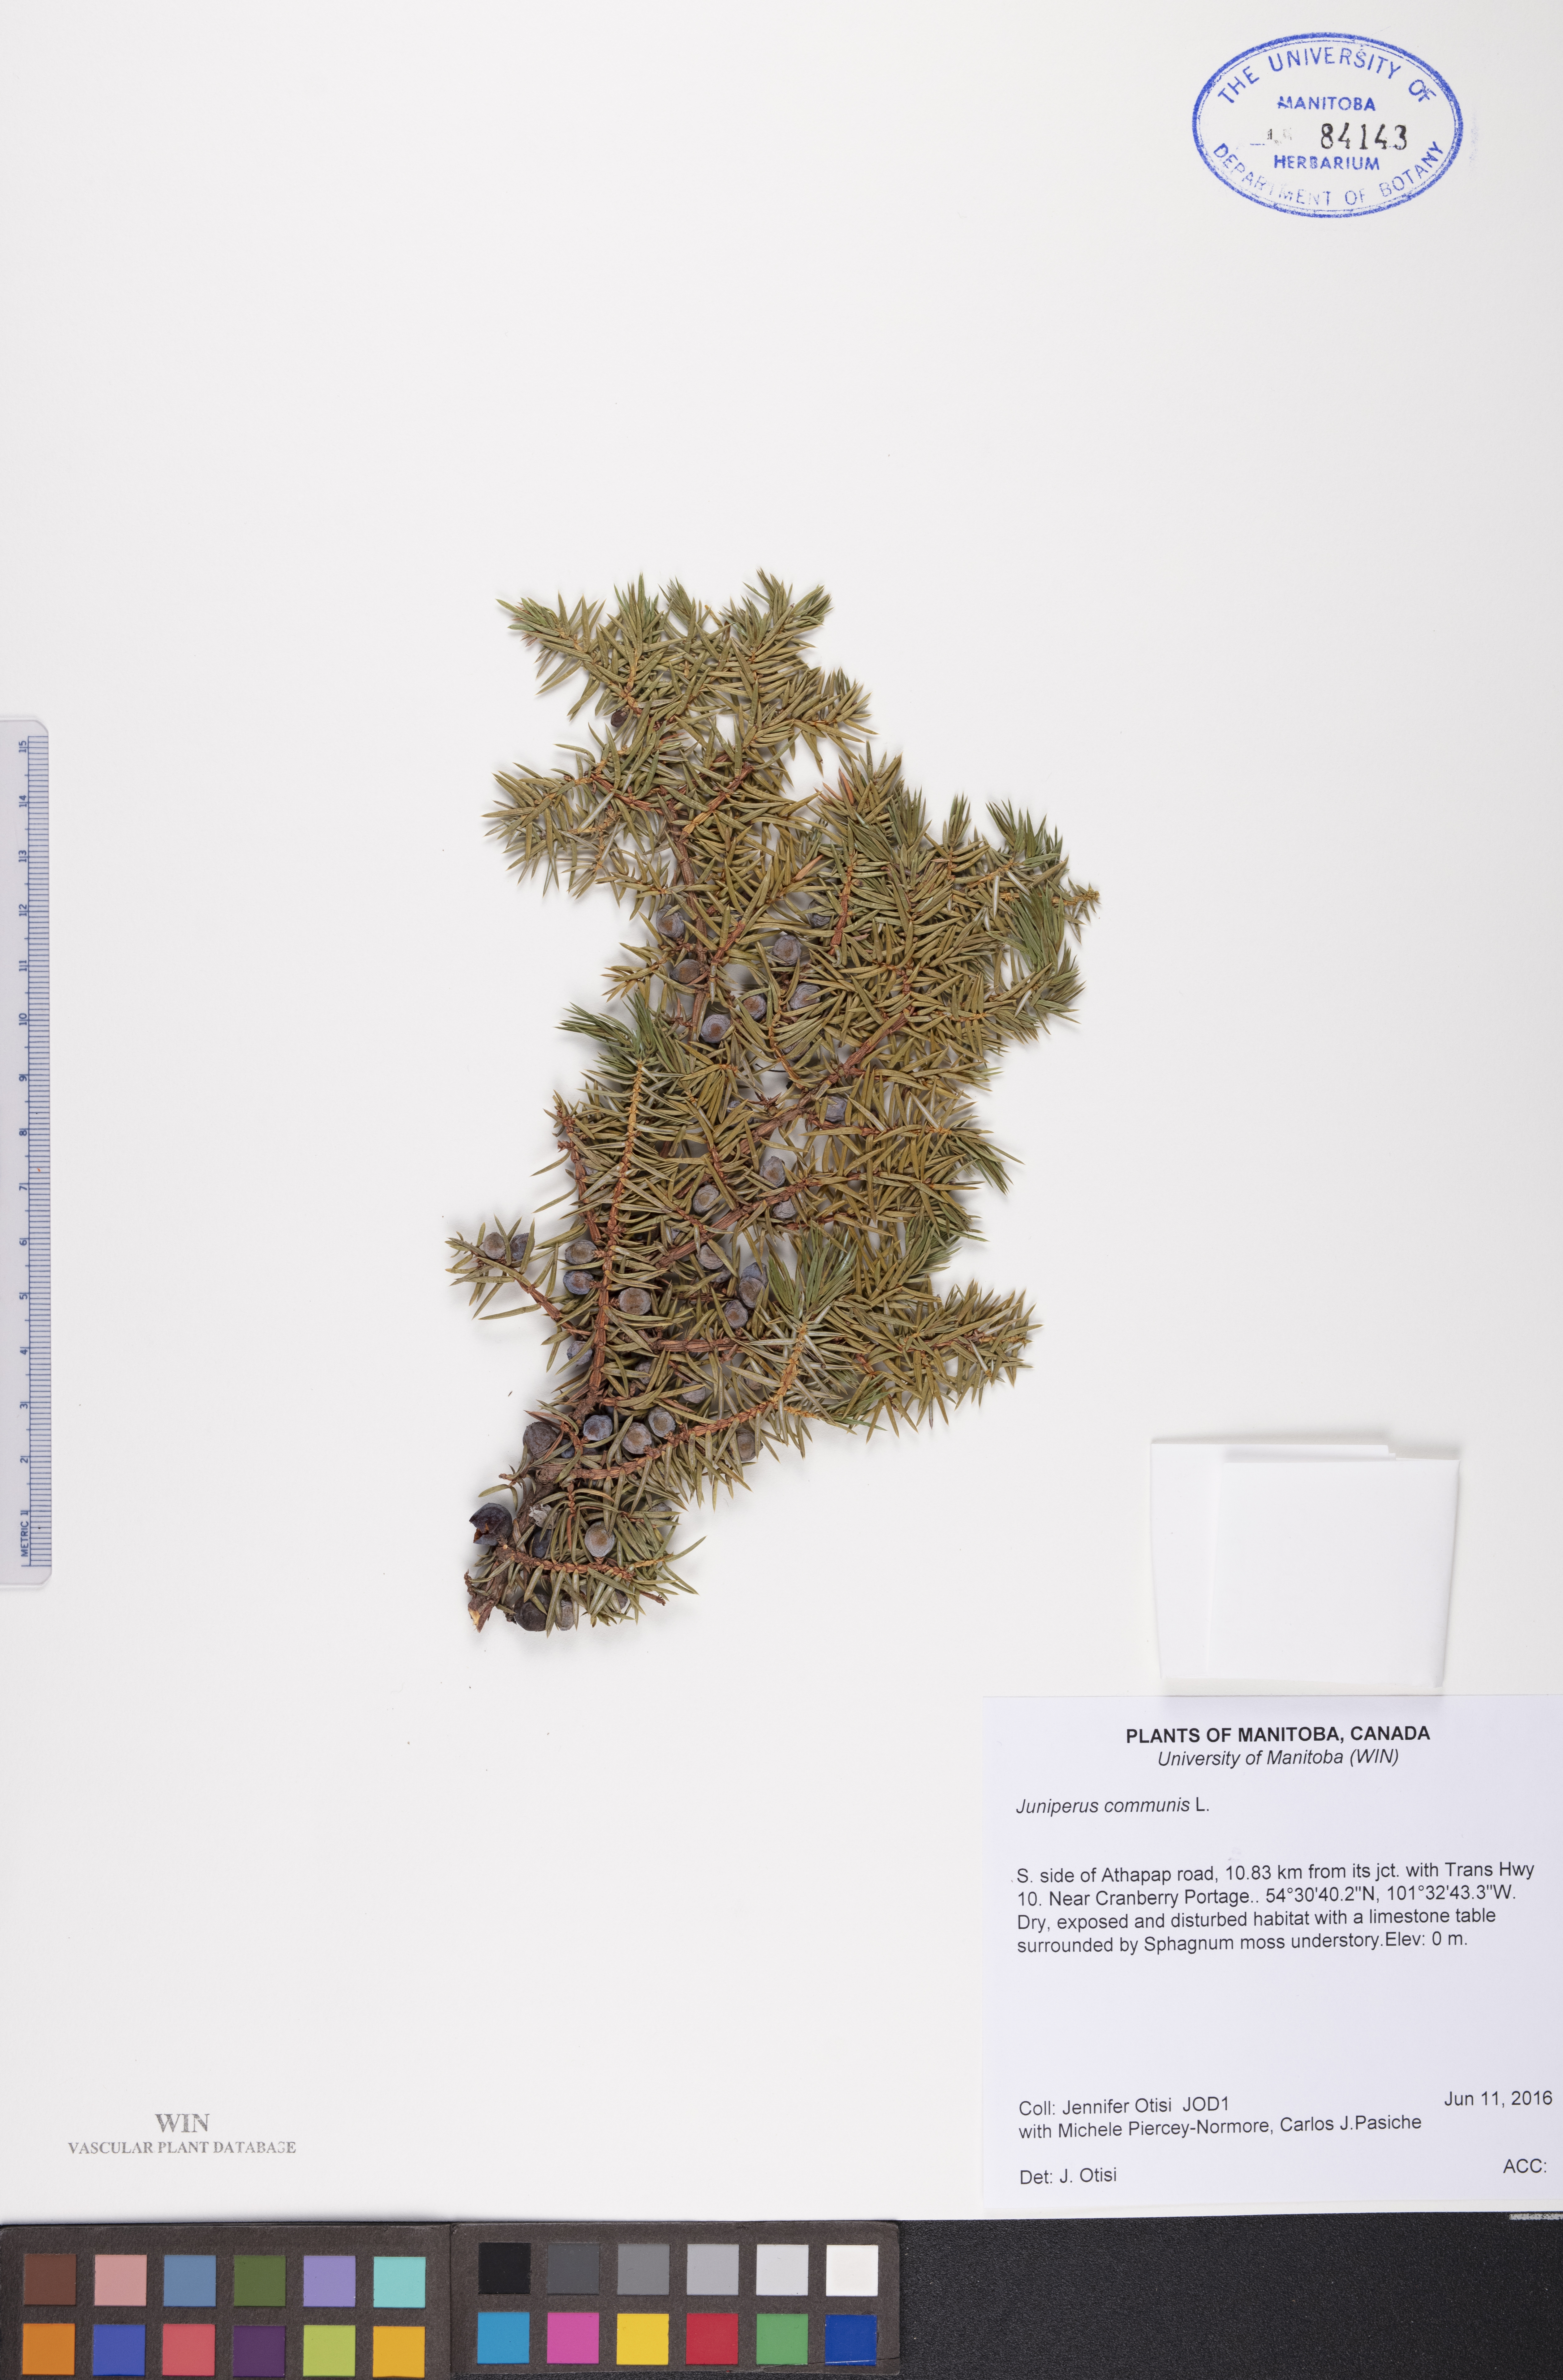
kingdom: Plantae
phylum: Tracheophyta
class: Pinopsida
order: Pinales
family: Cupressaceae
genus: Juniperus
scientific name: Juniperus communis
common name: Common juniper
